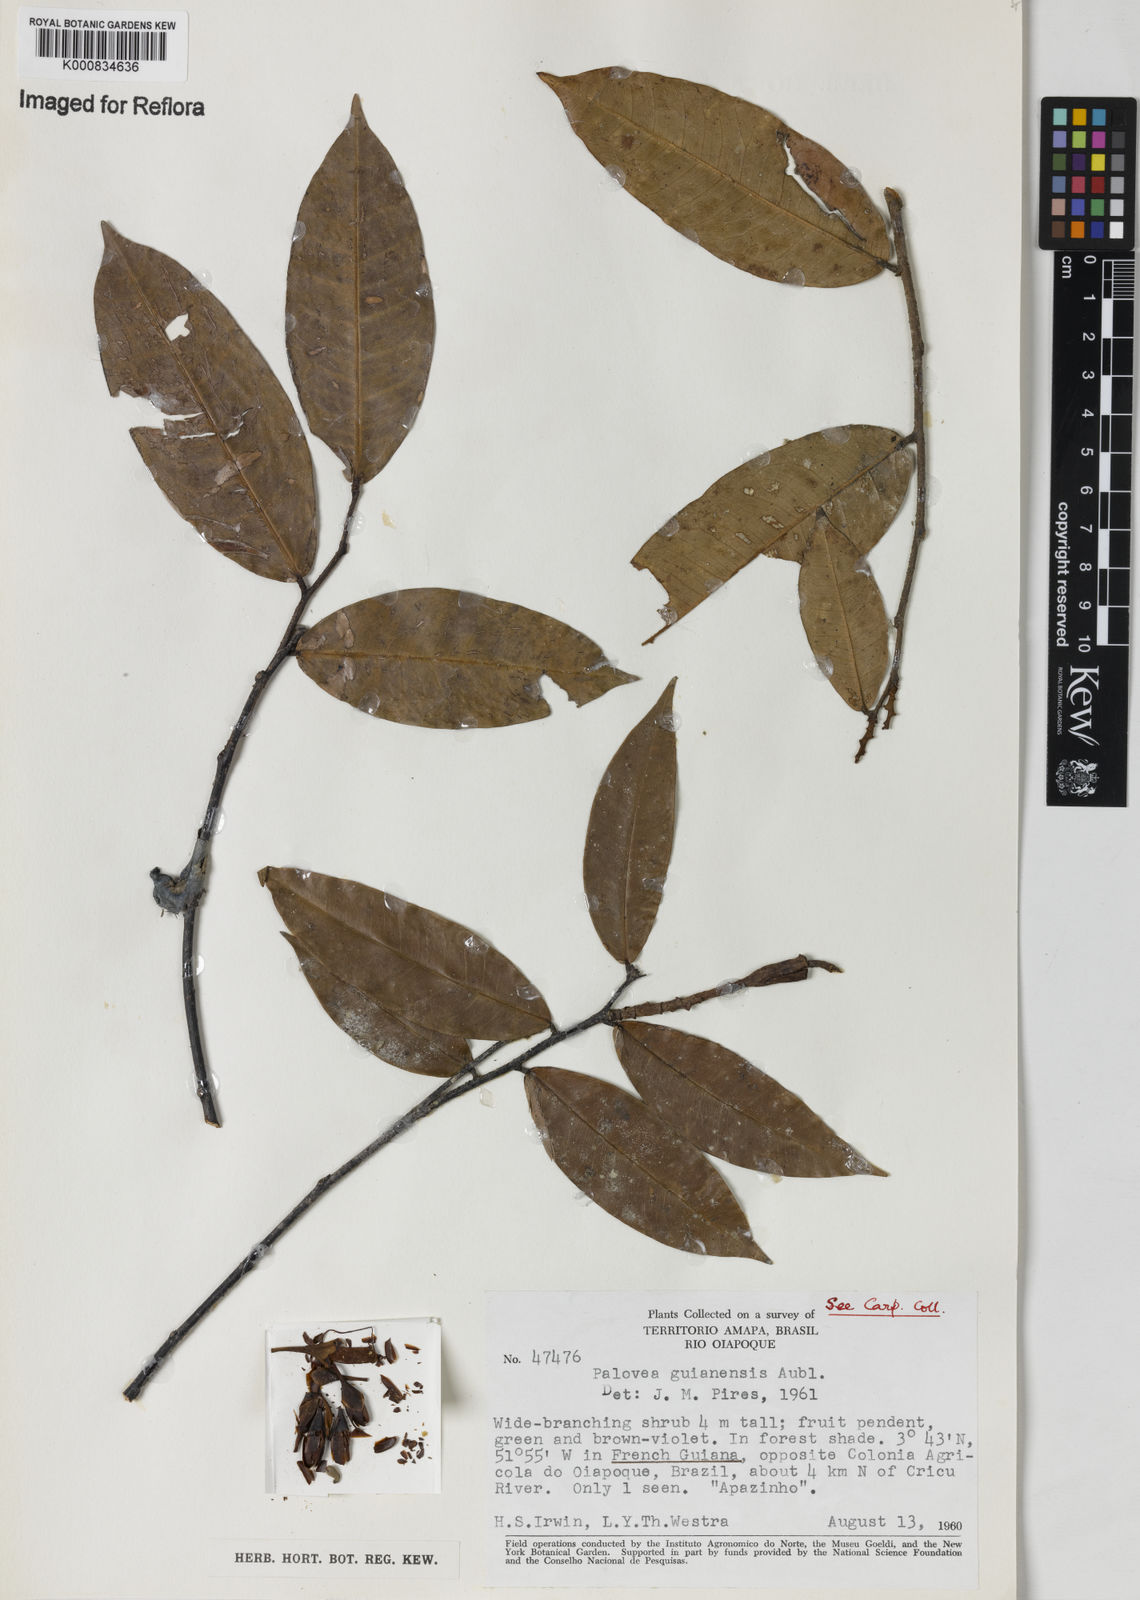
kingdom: Plantae
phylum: Tracheophyta
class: Magnoliopsida
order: Fabales
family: Fabaceae
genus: Paloue
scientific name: Paloue
